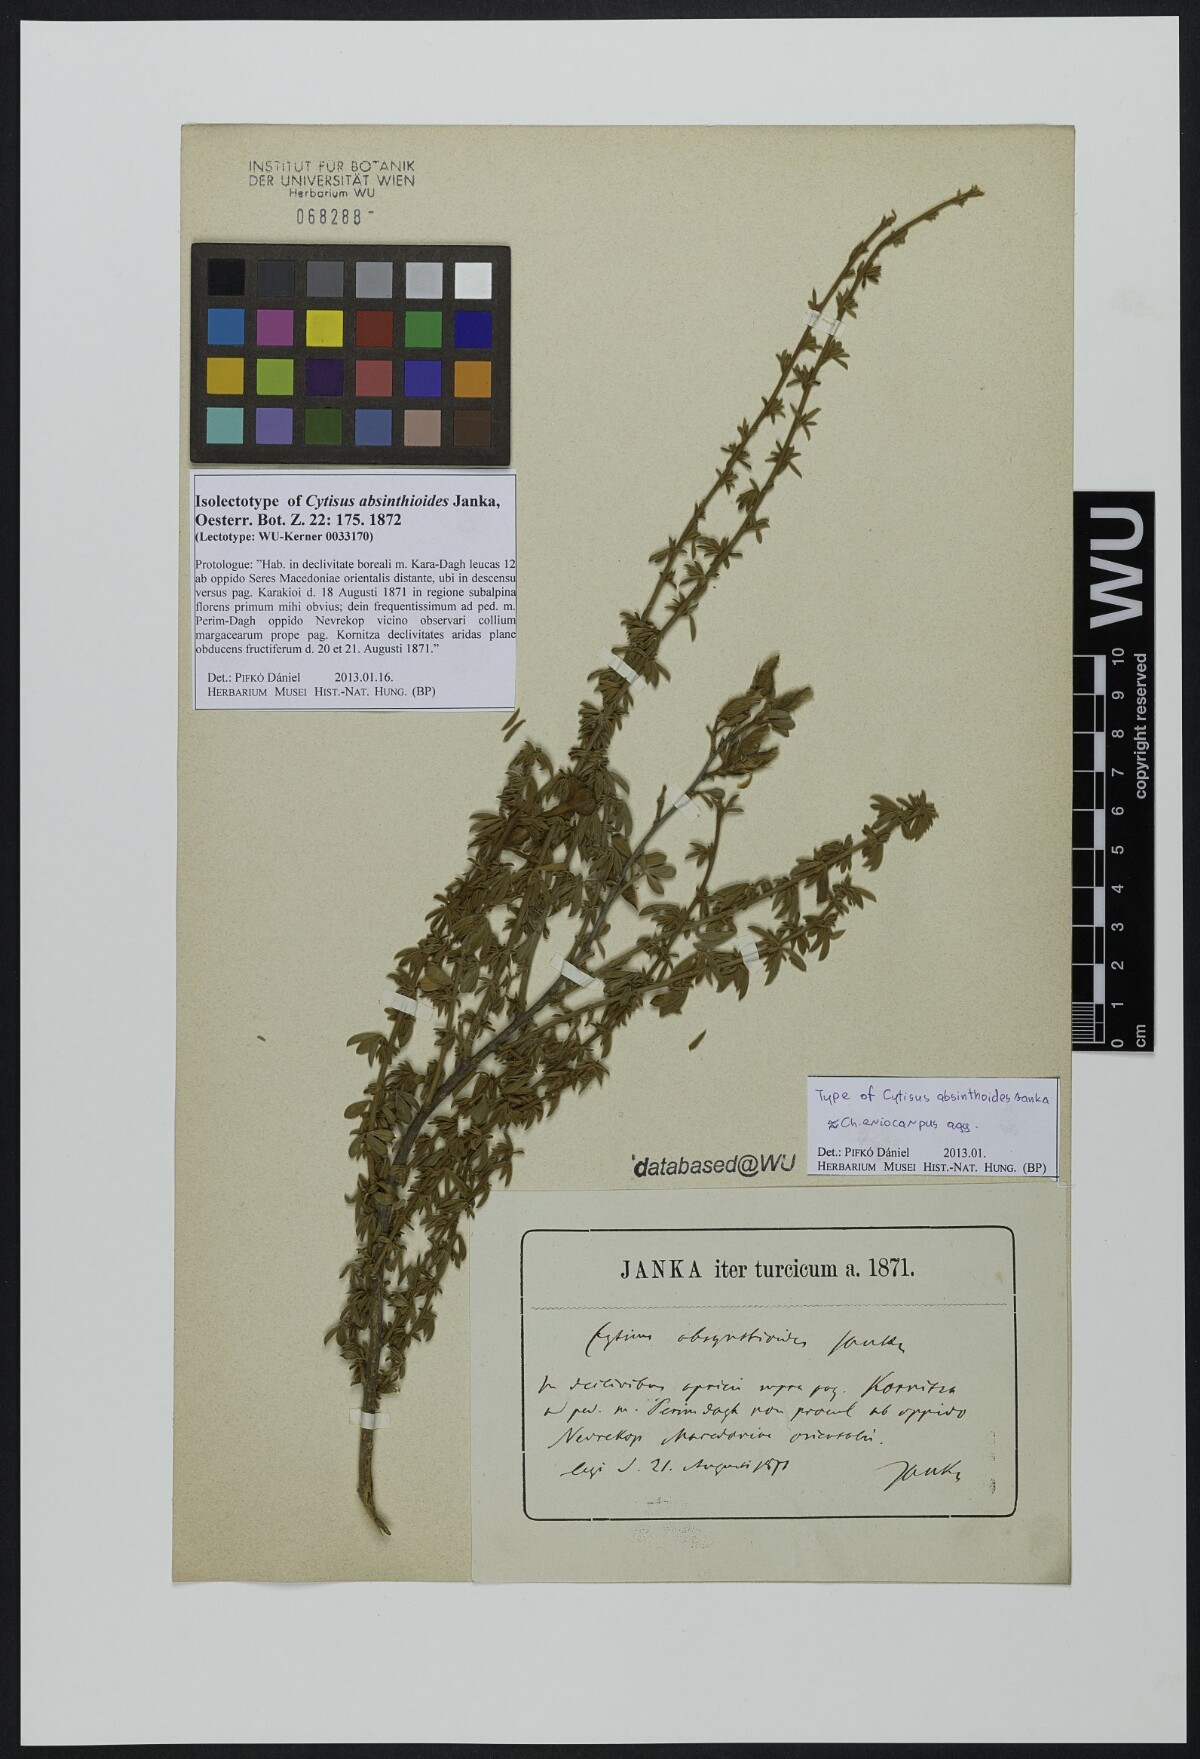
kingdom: Plantae
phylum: Tracheophyta
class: Magnoliopsida
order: Fabales
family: Fabaceae
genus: Chamaecytisus
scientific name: Chamaecytisus eriocarpus
